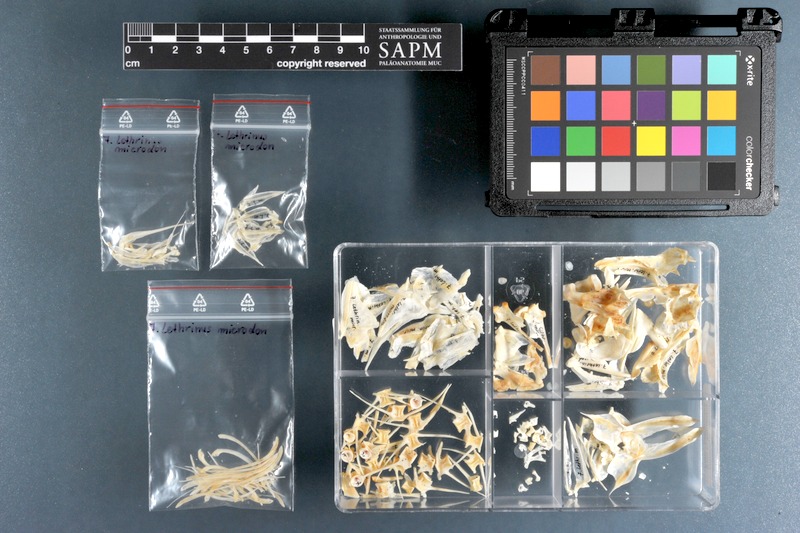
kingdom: Animalia
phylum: Chordata
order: Perciformes
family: Lethrinidae
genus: Lethrinus
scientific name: Lethrinus microdon
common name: Smalltooth emperor
